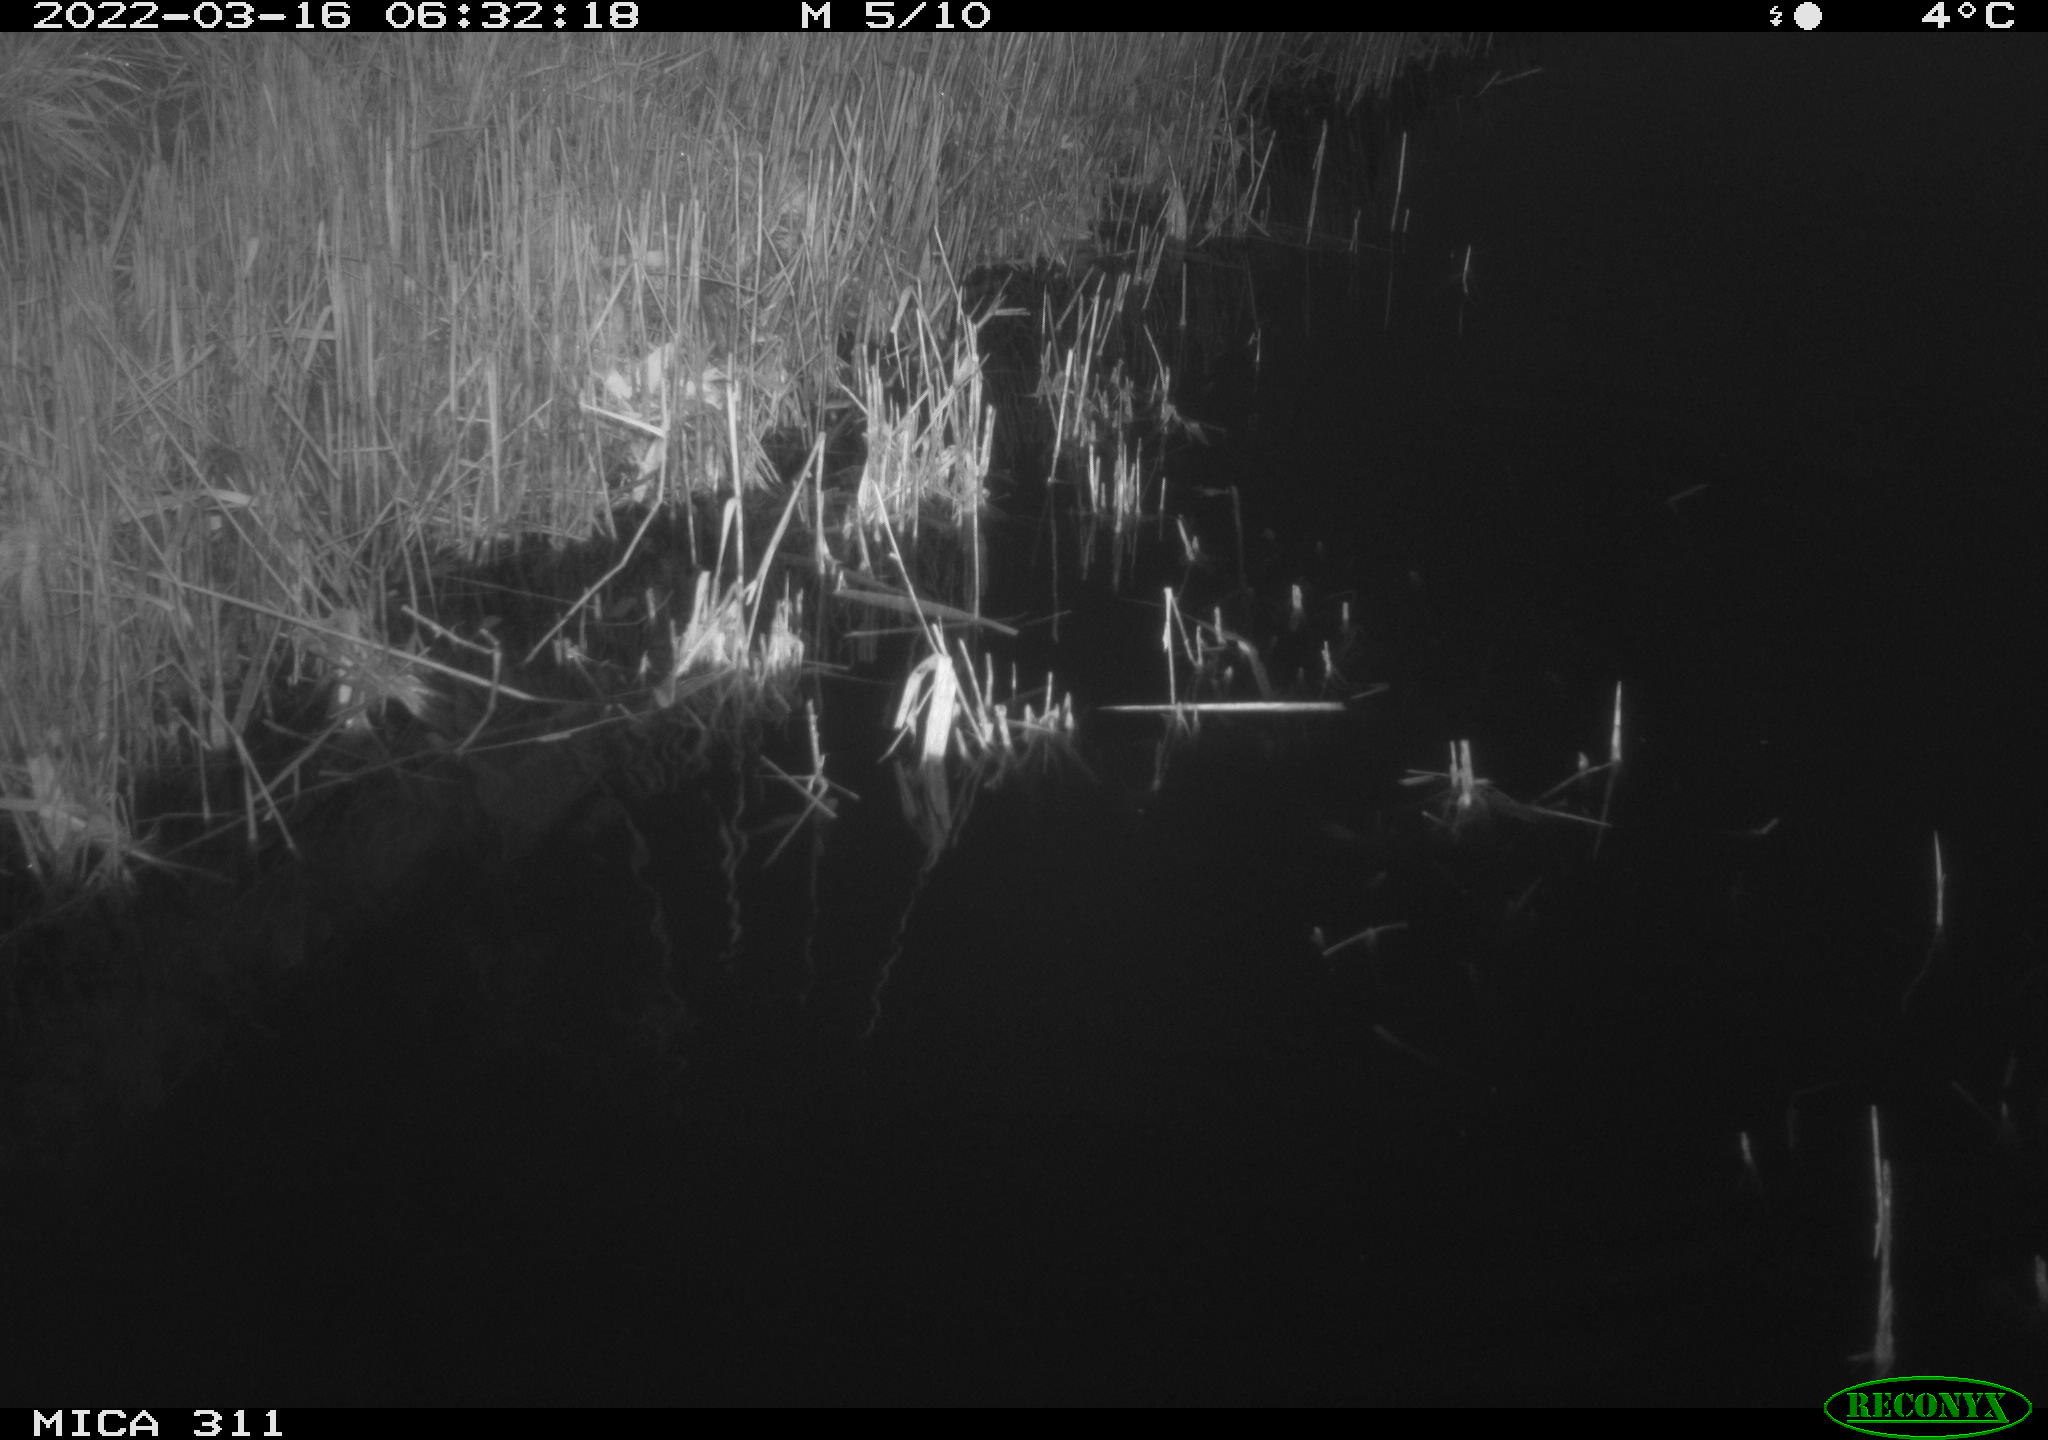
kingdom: Animalia
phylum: Chordata
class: Aves
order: Gruiformes
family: Rallidae
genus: Gallinula
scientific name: Gallinula chloropus
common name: Common moorhen
